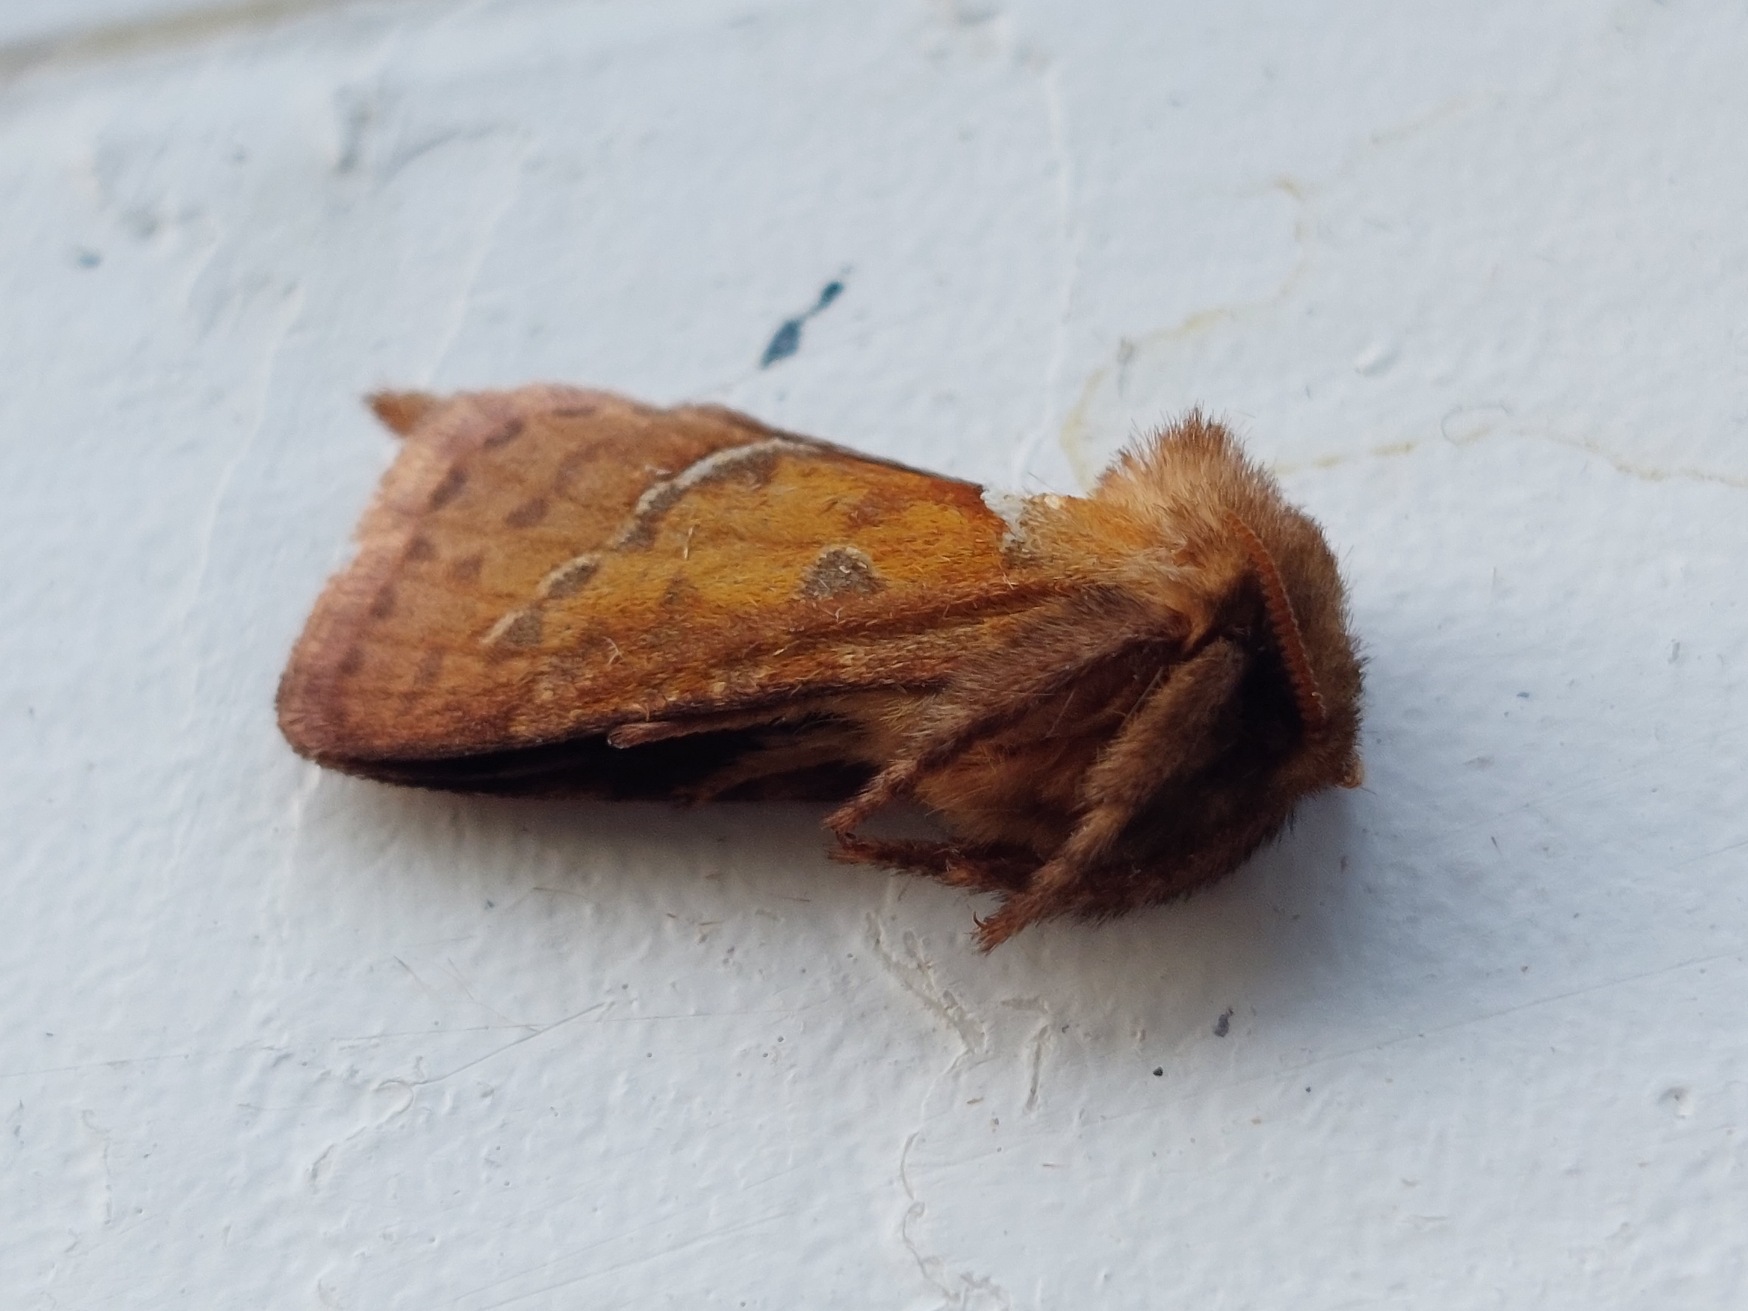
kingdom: Animalia
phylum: Arthropoda
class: Insecta
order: Lepidoptera
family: Hepialidae
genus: Triodia
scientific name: Triodia sylvina
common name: Skræpperodæder
